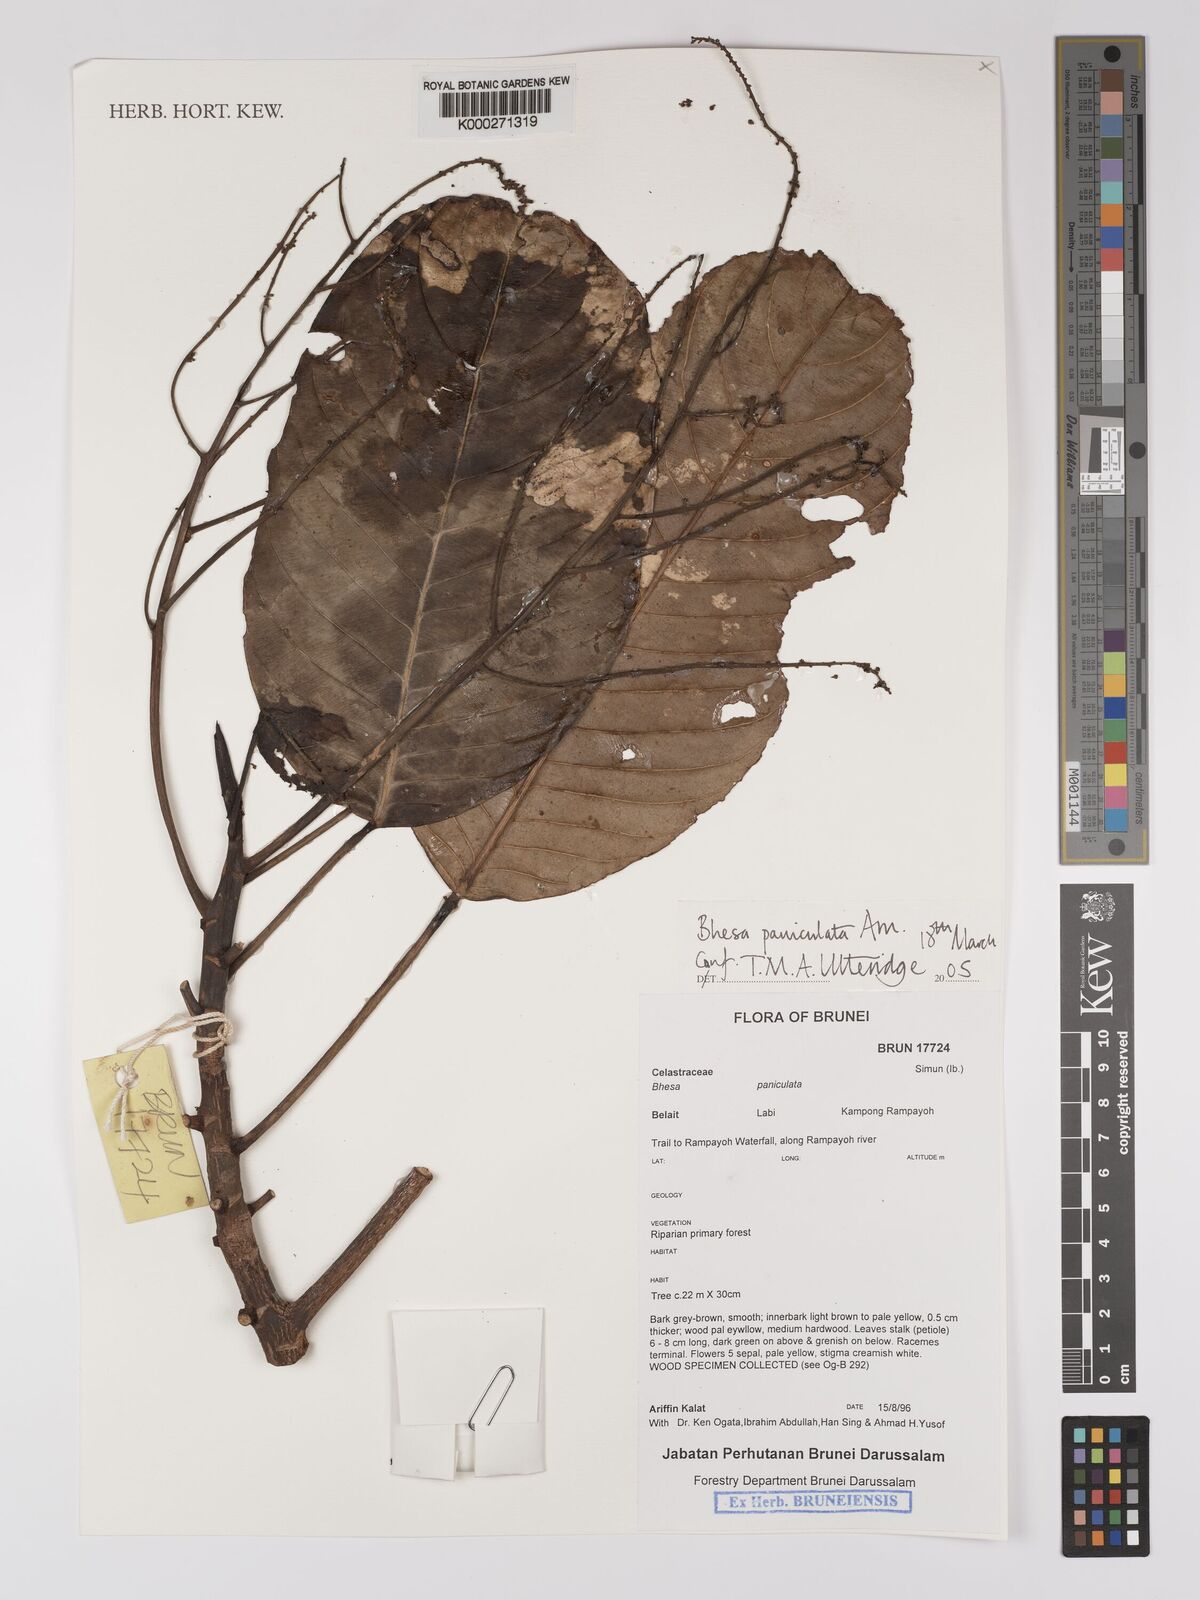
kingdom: Plantae
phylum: Tracheophyta
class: Magnoliopsida
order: Malpighiales
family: Centroplacaceae
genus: Bhesa
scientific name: Bhesa paniculata
